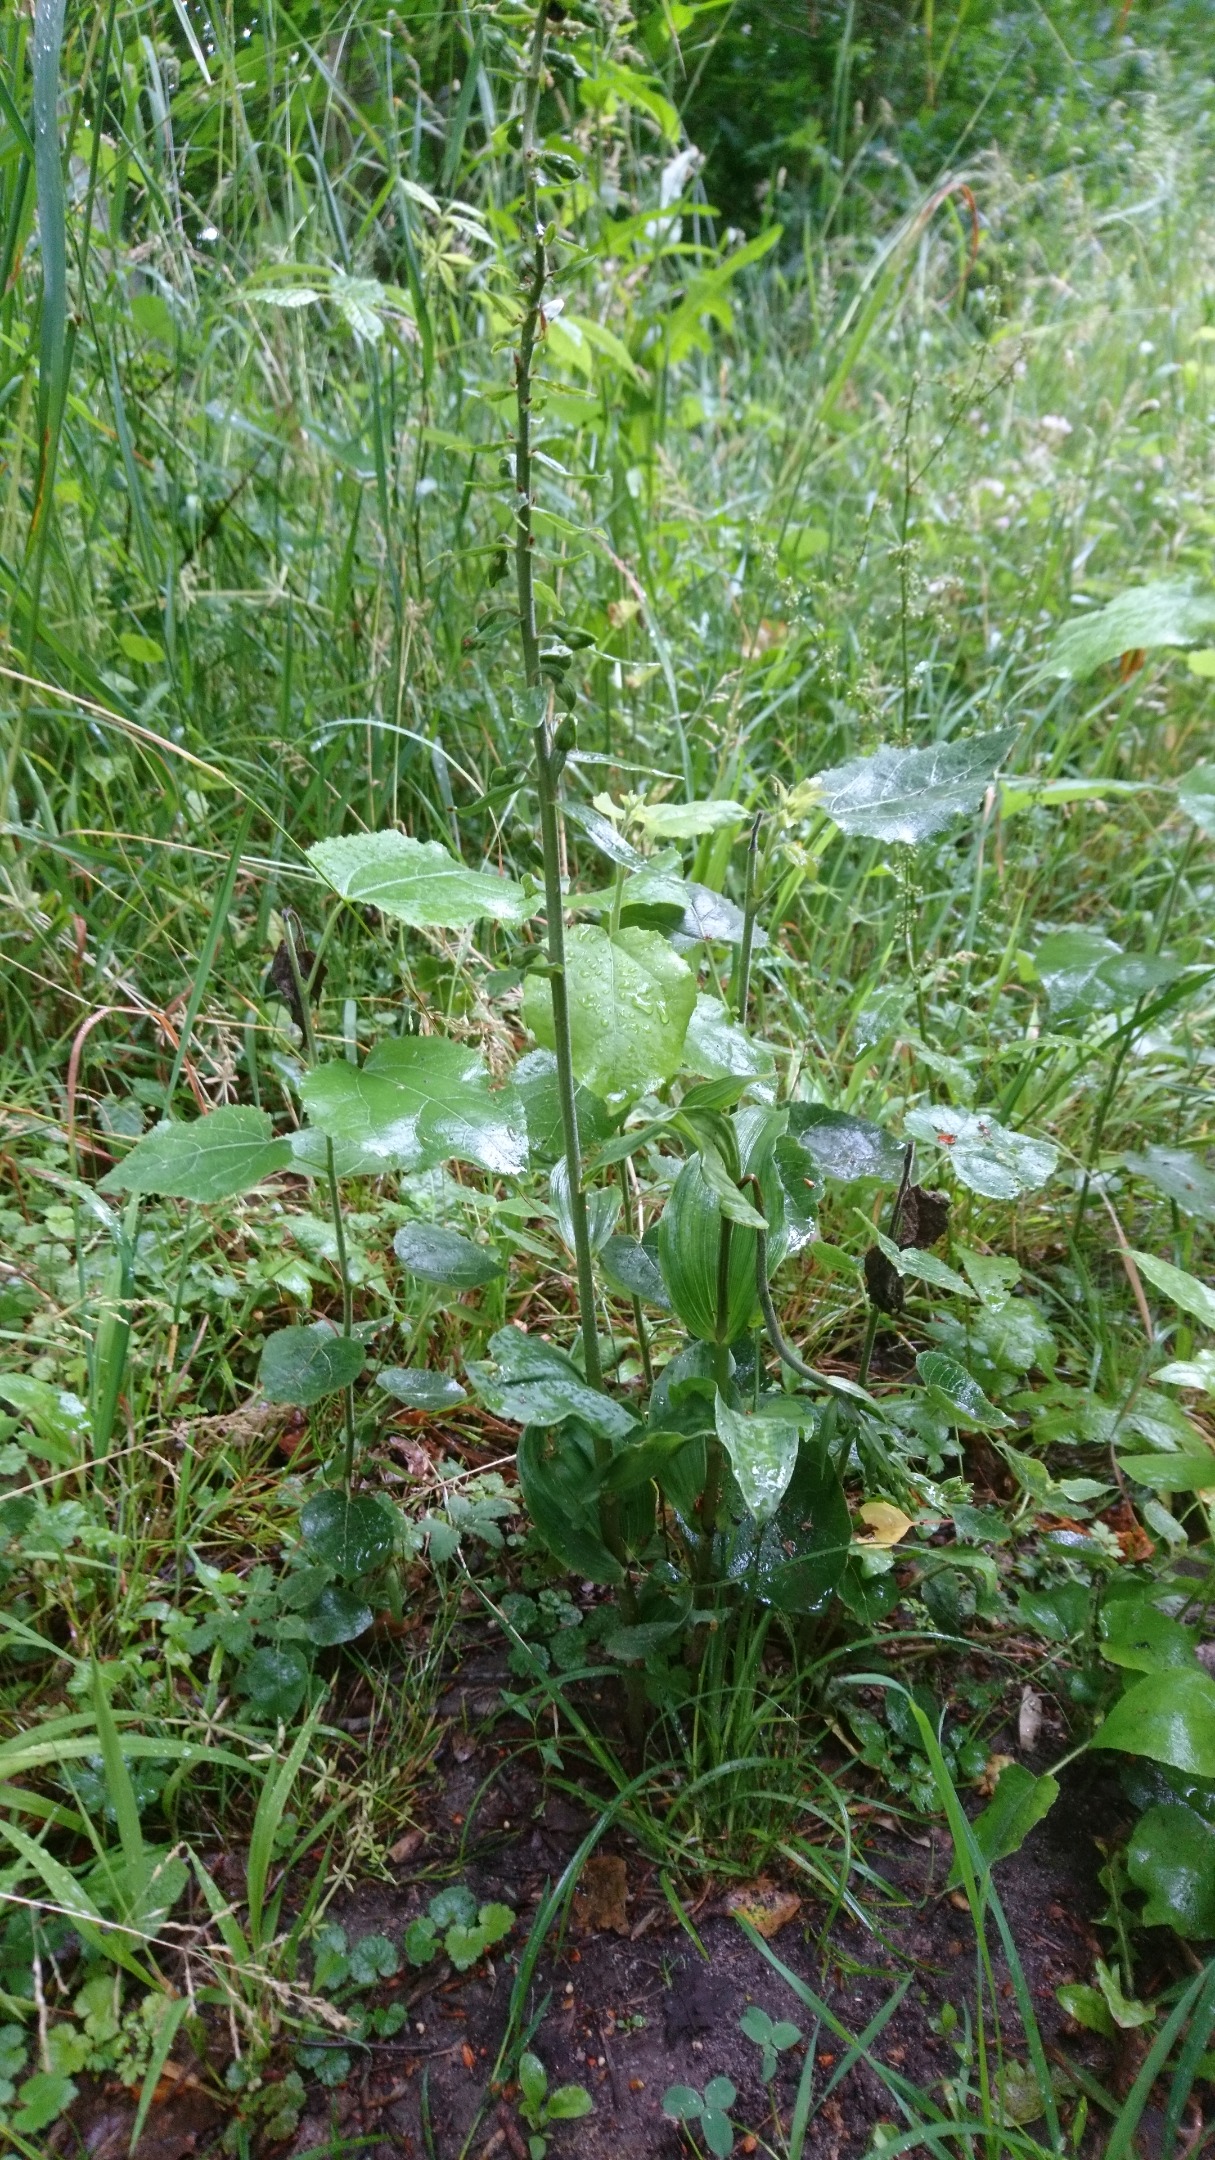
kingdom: Plantae
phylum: Tracheophyta
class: Liliopsida
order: Asparagales
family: Orchidaceae
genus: Epipactis
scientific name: Epipactis helleborine
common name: Skov-hullæbe
